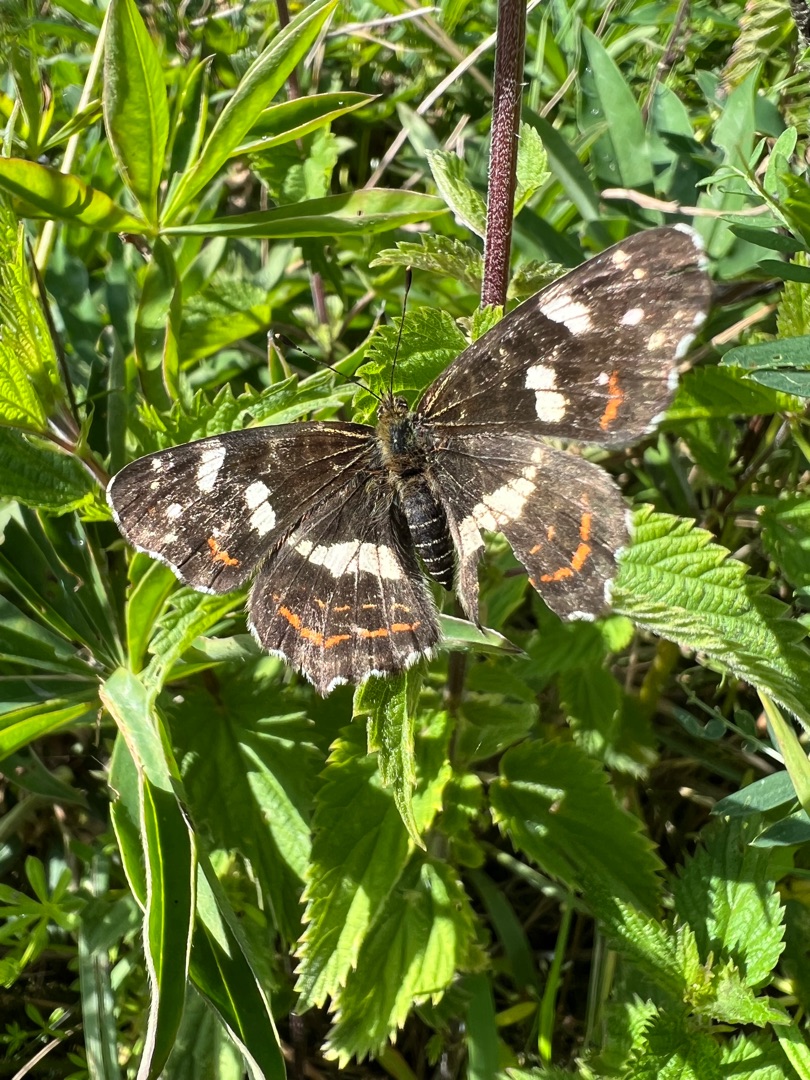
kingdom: Animalia
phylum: Arthropoda
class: Insecta
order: Lepidoptera
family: Nymphalidae
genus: Araschnia
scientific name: Araschnia levana
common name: Nældesommerfugl
